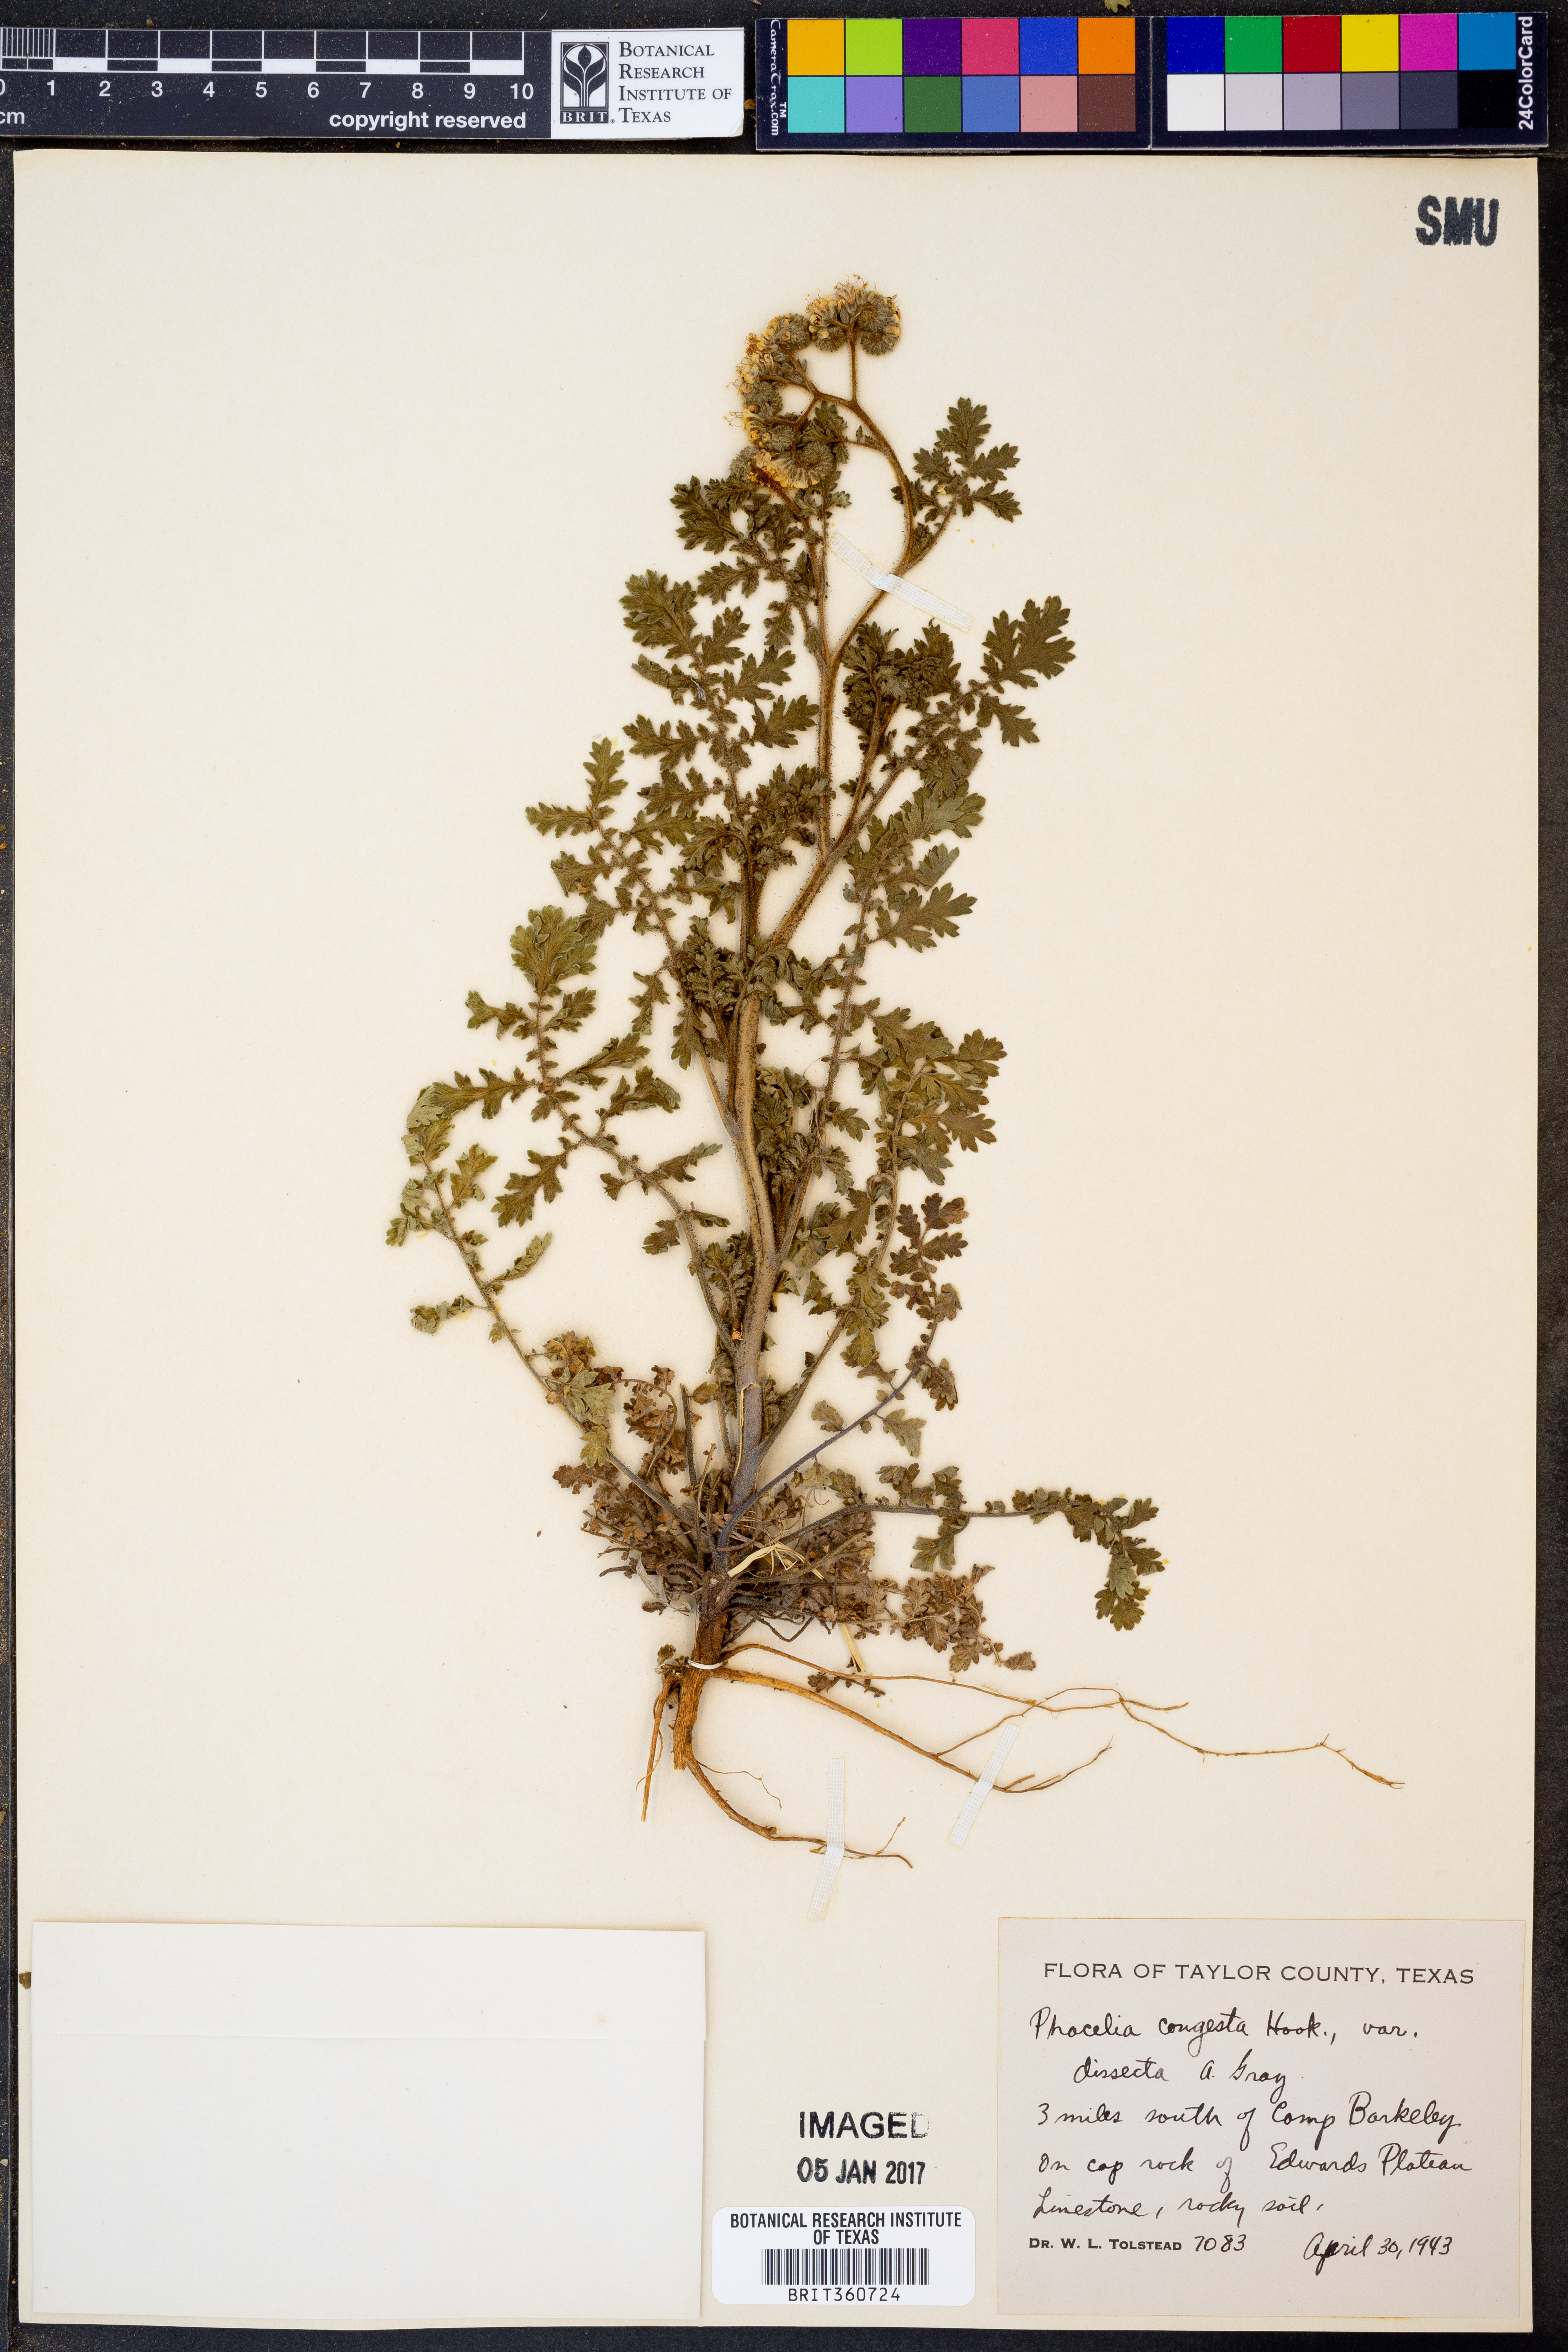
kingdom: Plantae
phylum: Tracheophyta
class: Magnoliopsida
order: Boraginales
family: Hydrophyllaceae
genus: Phacelia
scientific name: Phacelia congesta
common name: Blue curls
